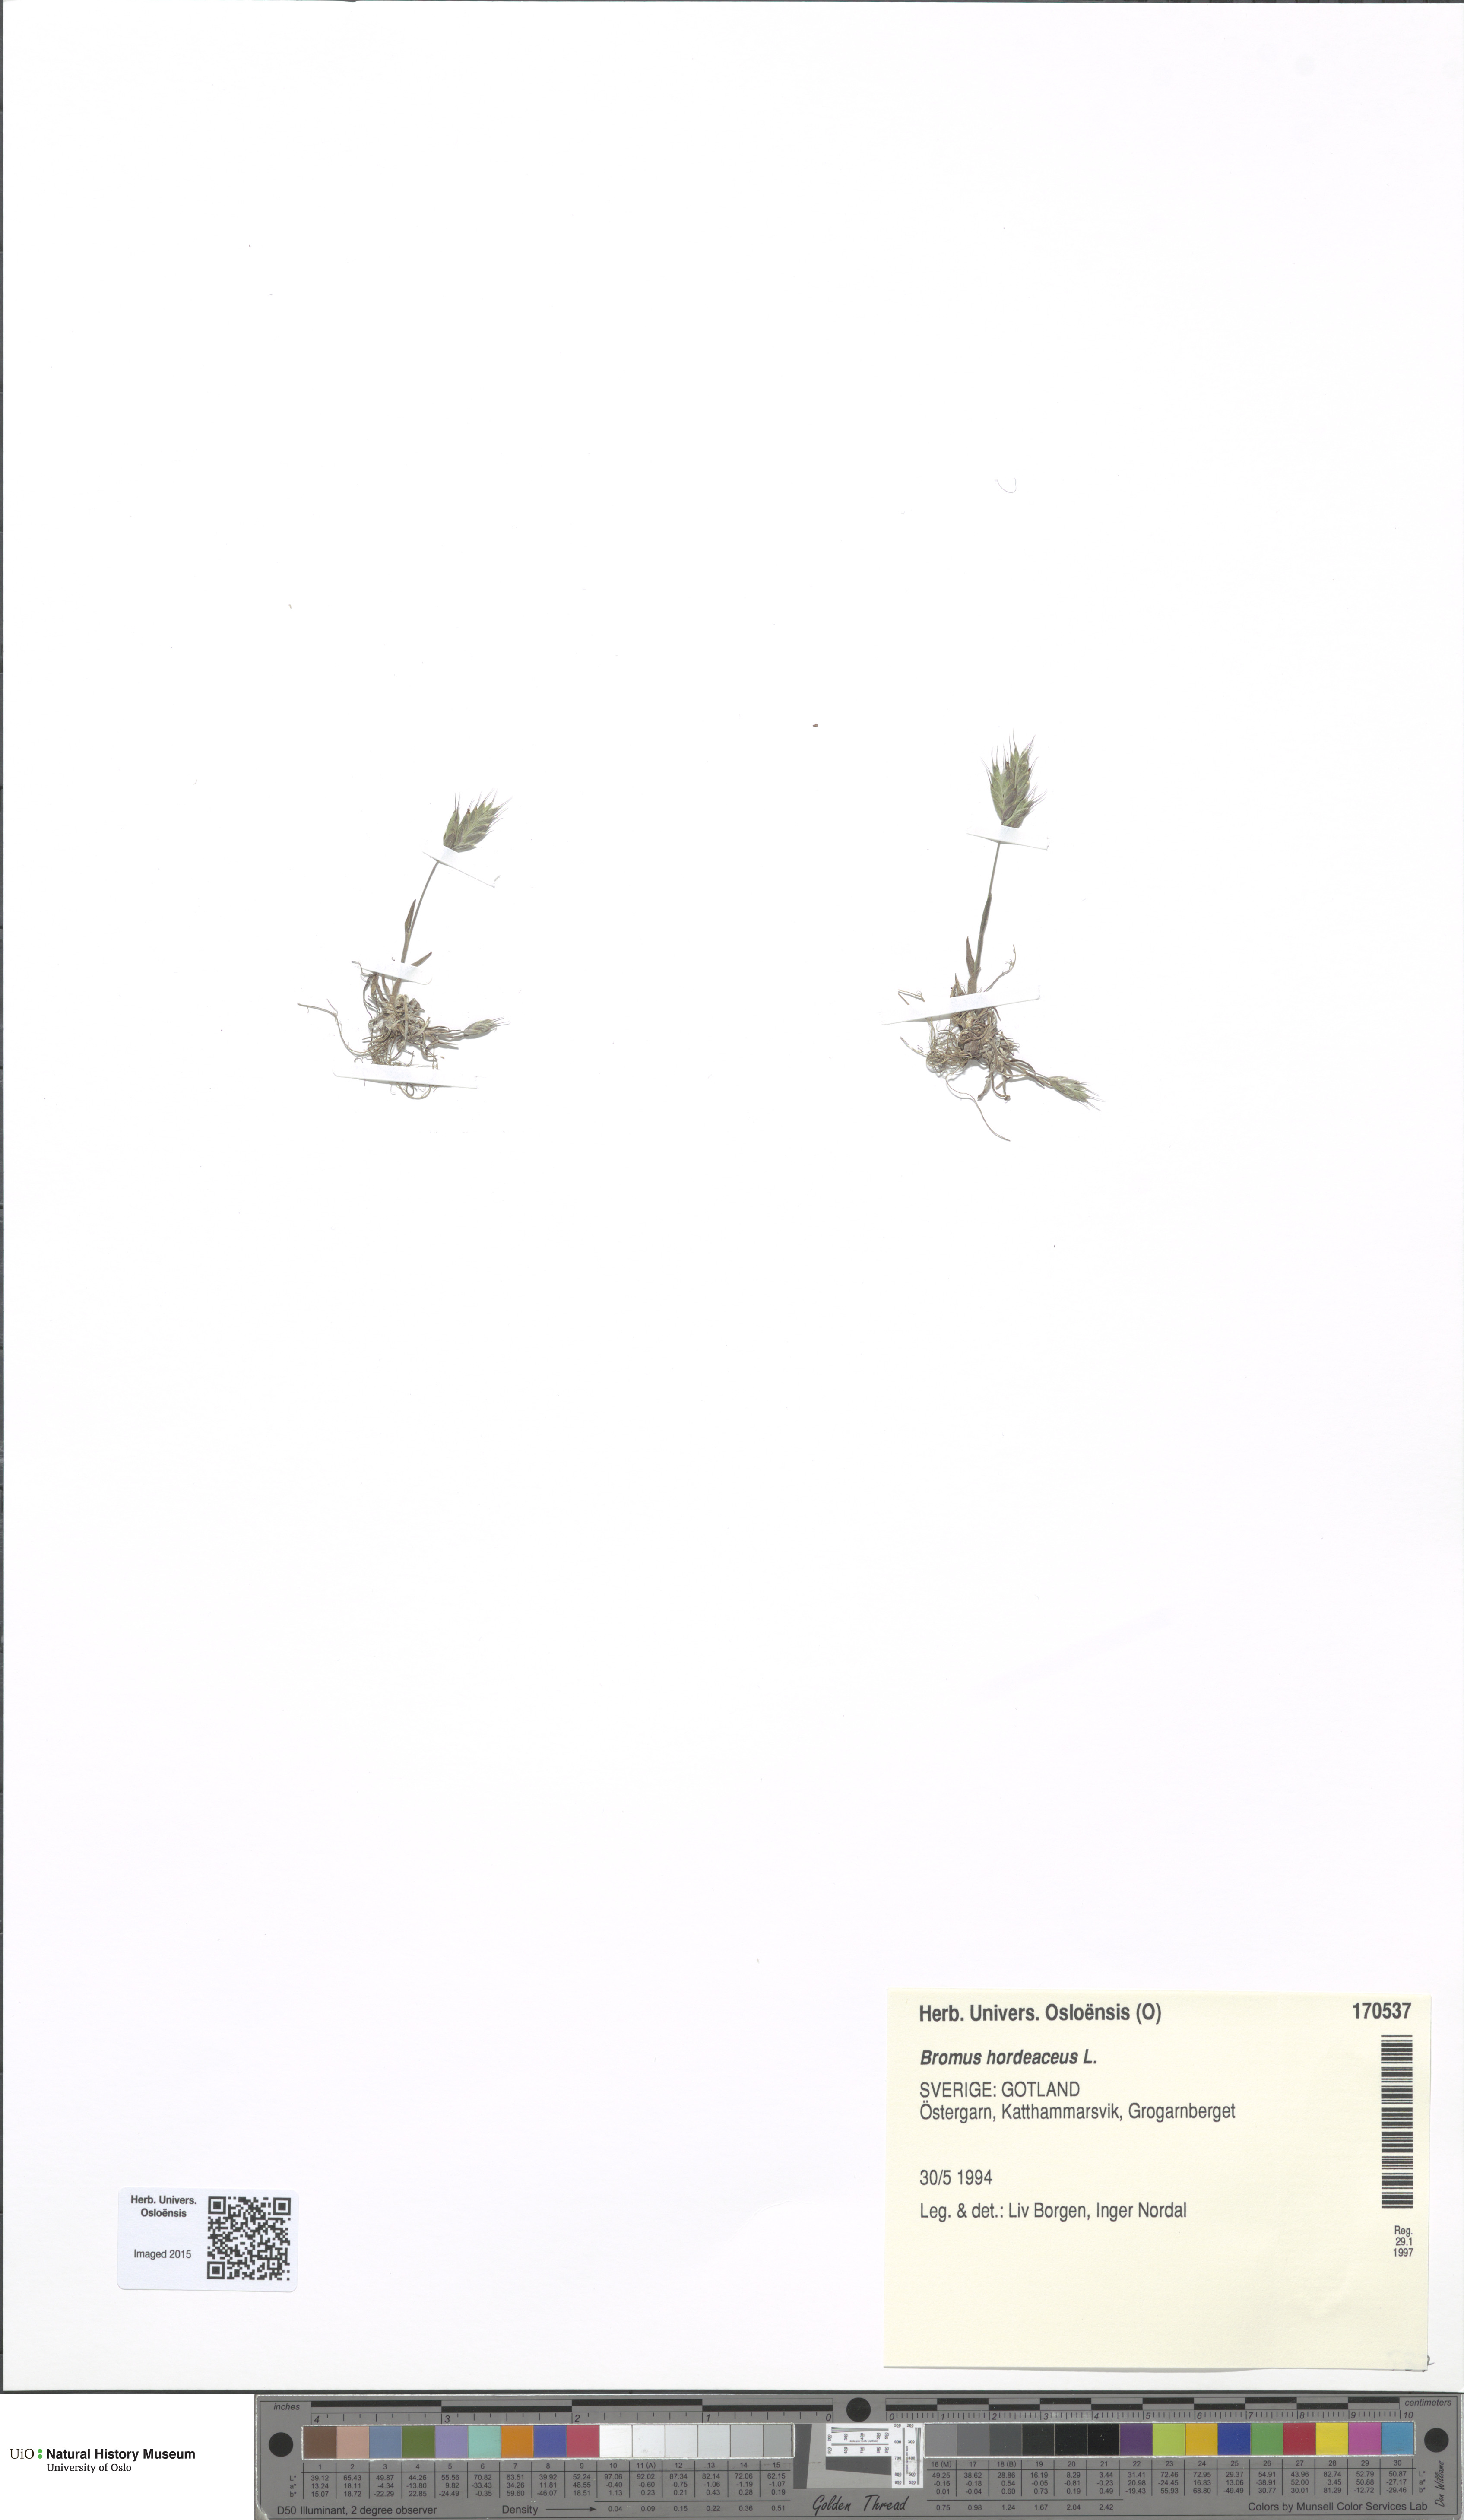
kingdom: Plantae
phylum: Tracheophyta
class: Liliopsida
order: Poales
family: Poaceae
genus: Bromus
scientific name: Bromus hordeaceus
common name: Soft brome
